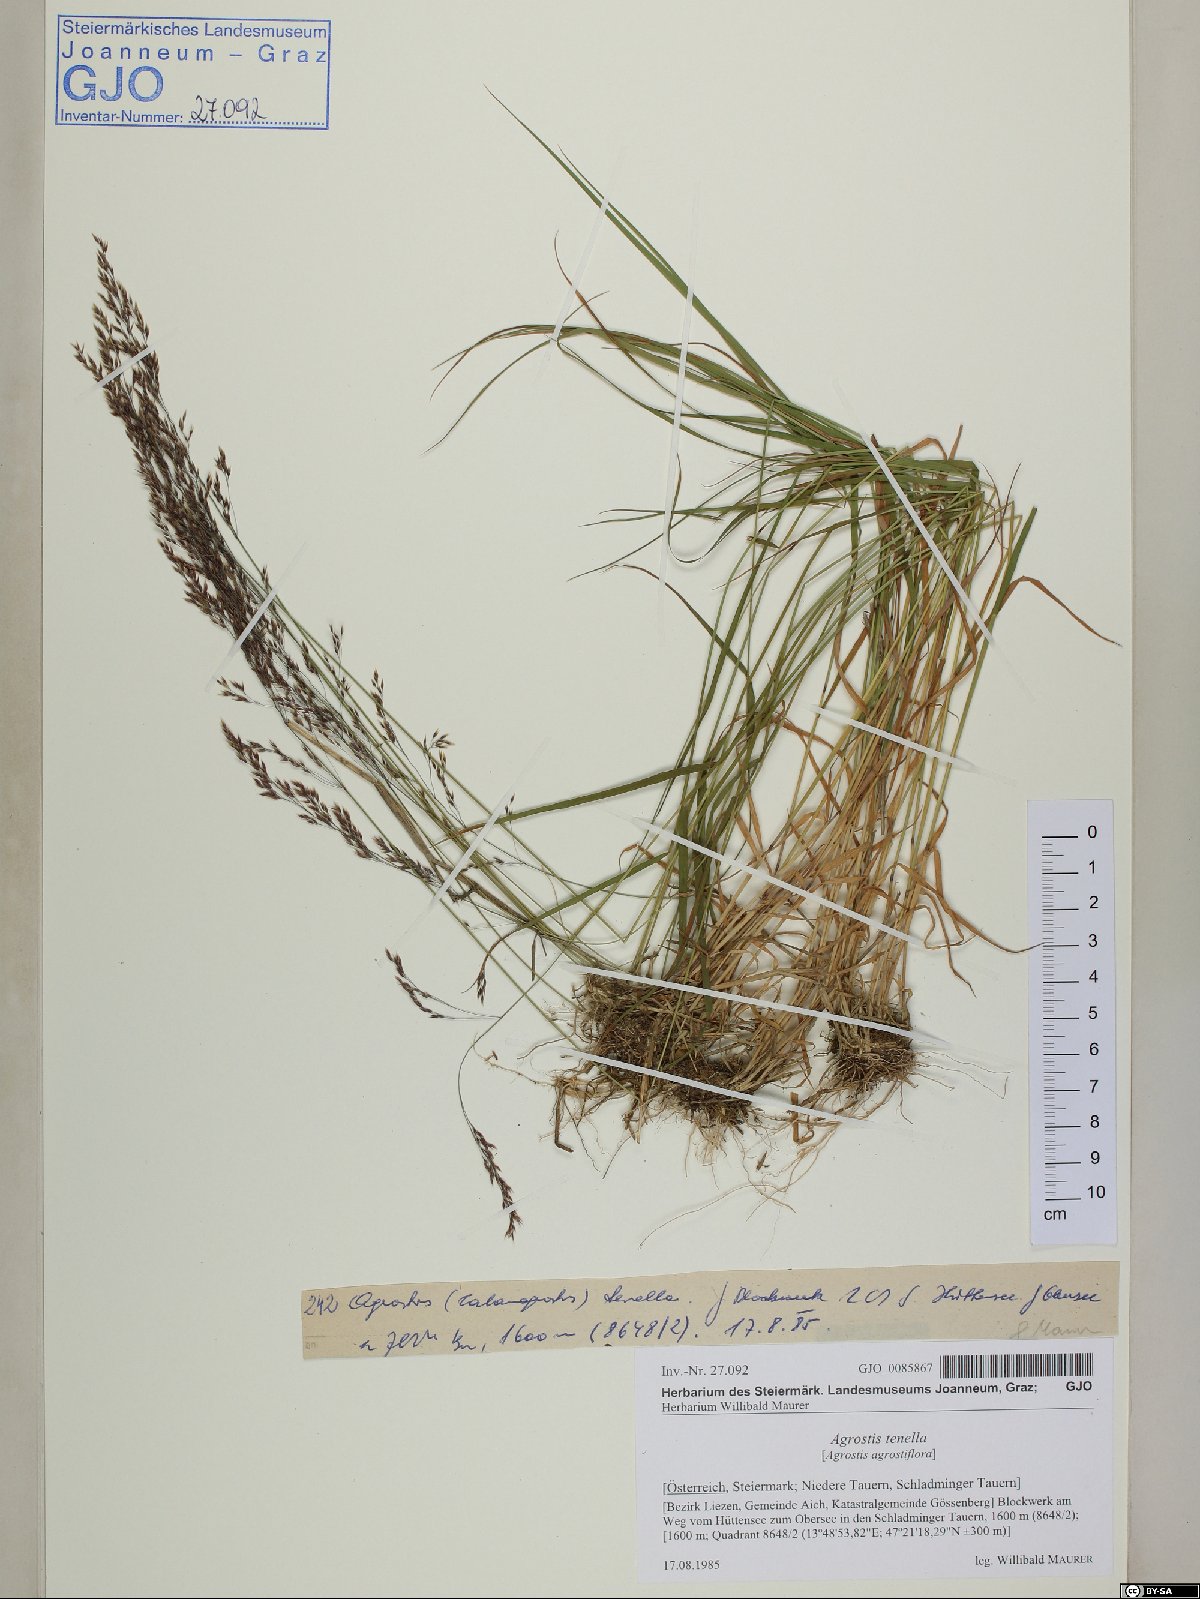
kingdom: Plantae
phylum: Tracheophyta
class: Liliopsida
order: Poales
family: Poaceae
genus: Agrostis
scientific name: Agrostis gigantea
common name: Black bent
